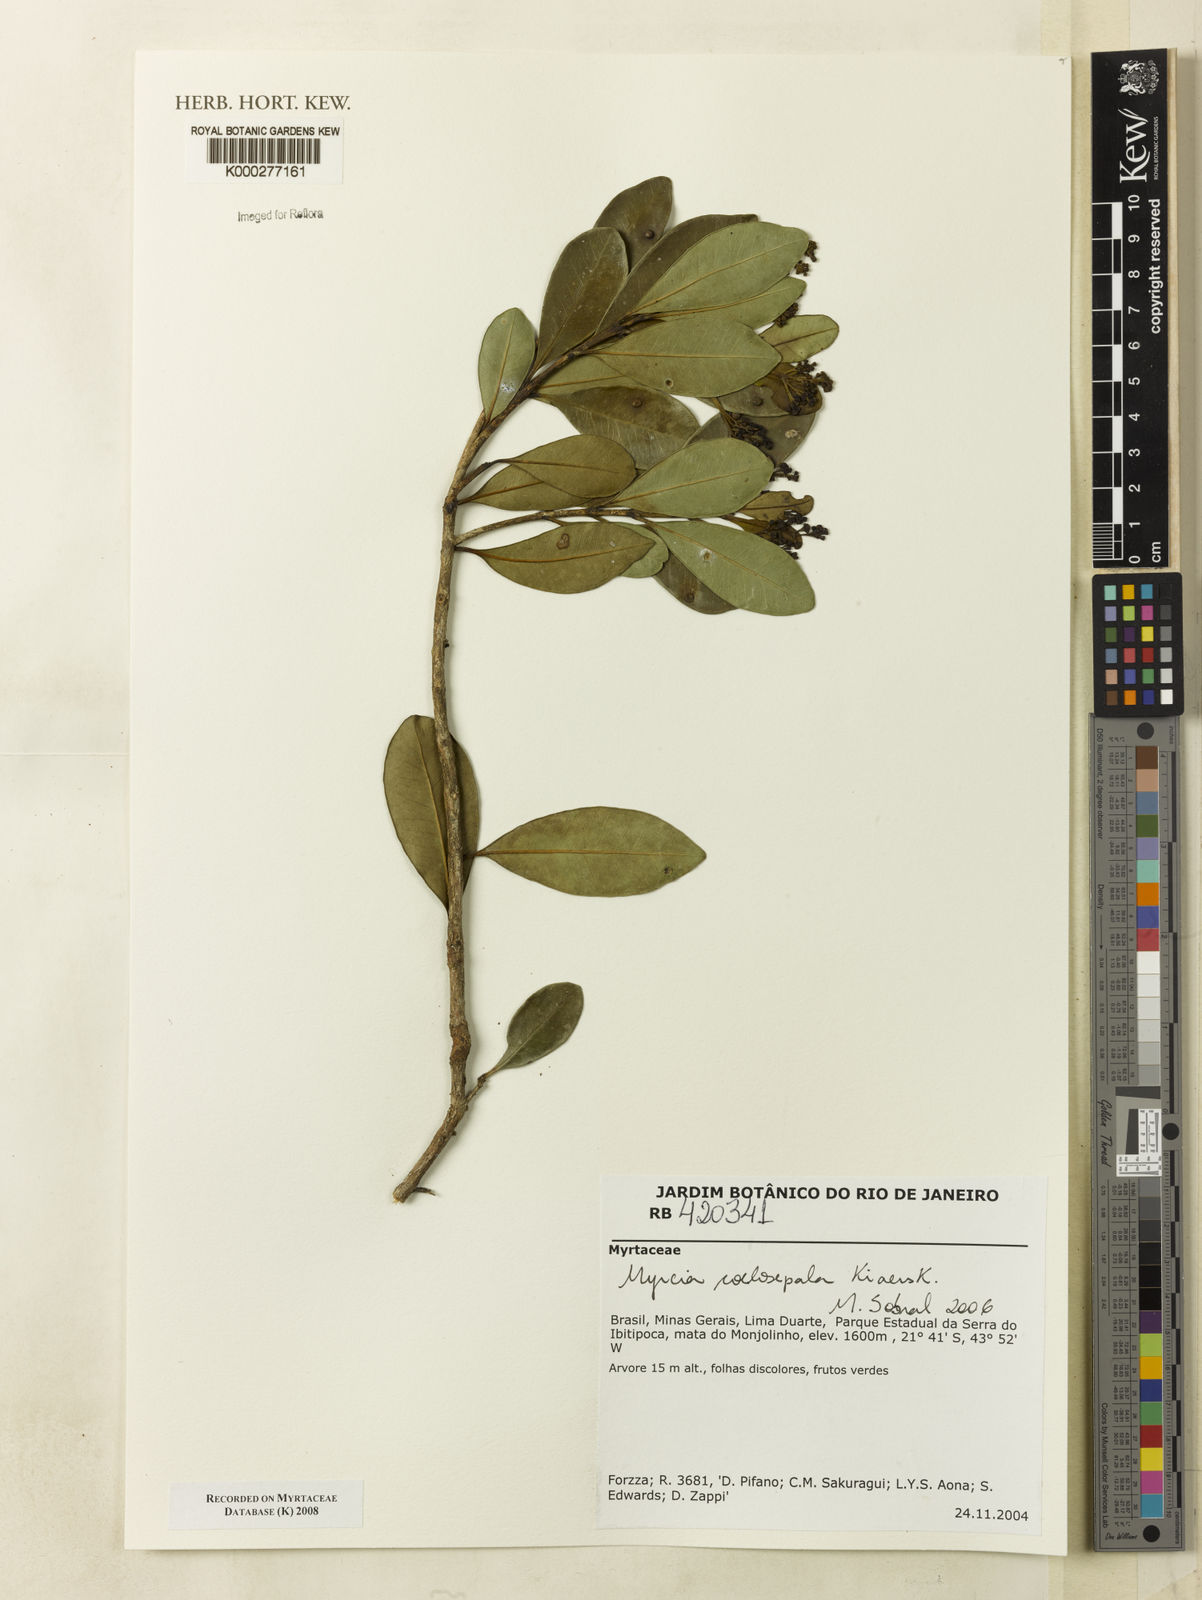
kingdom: Plantae
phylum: Tracheophyta
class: Magnoliopsida
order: Myrtales
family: Myrtaceae
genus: Myrcia
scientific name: Myrcia coelosepala
